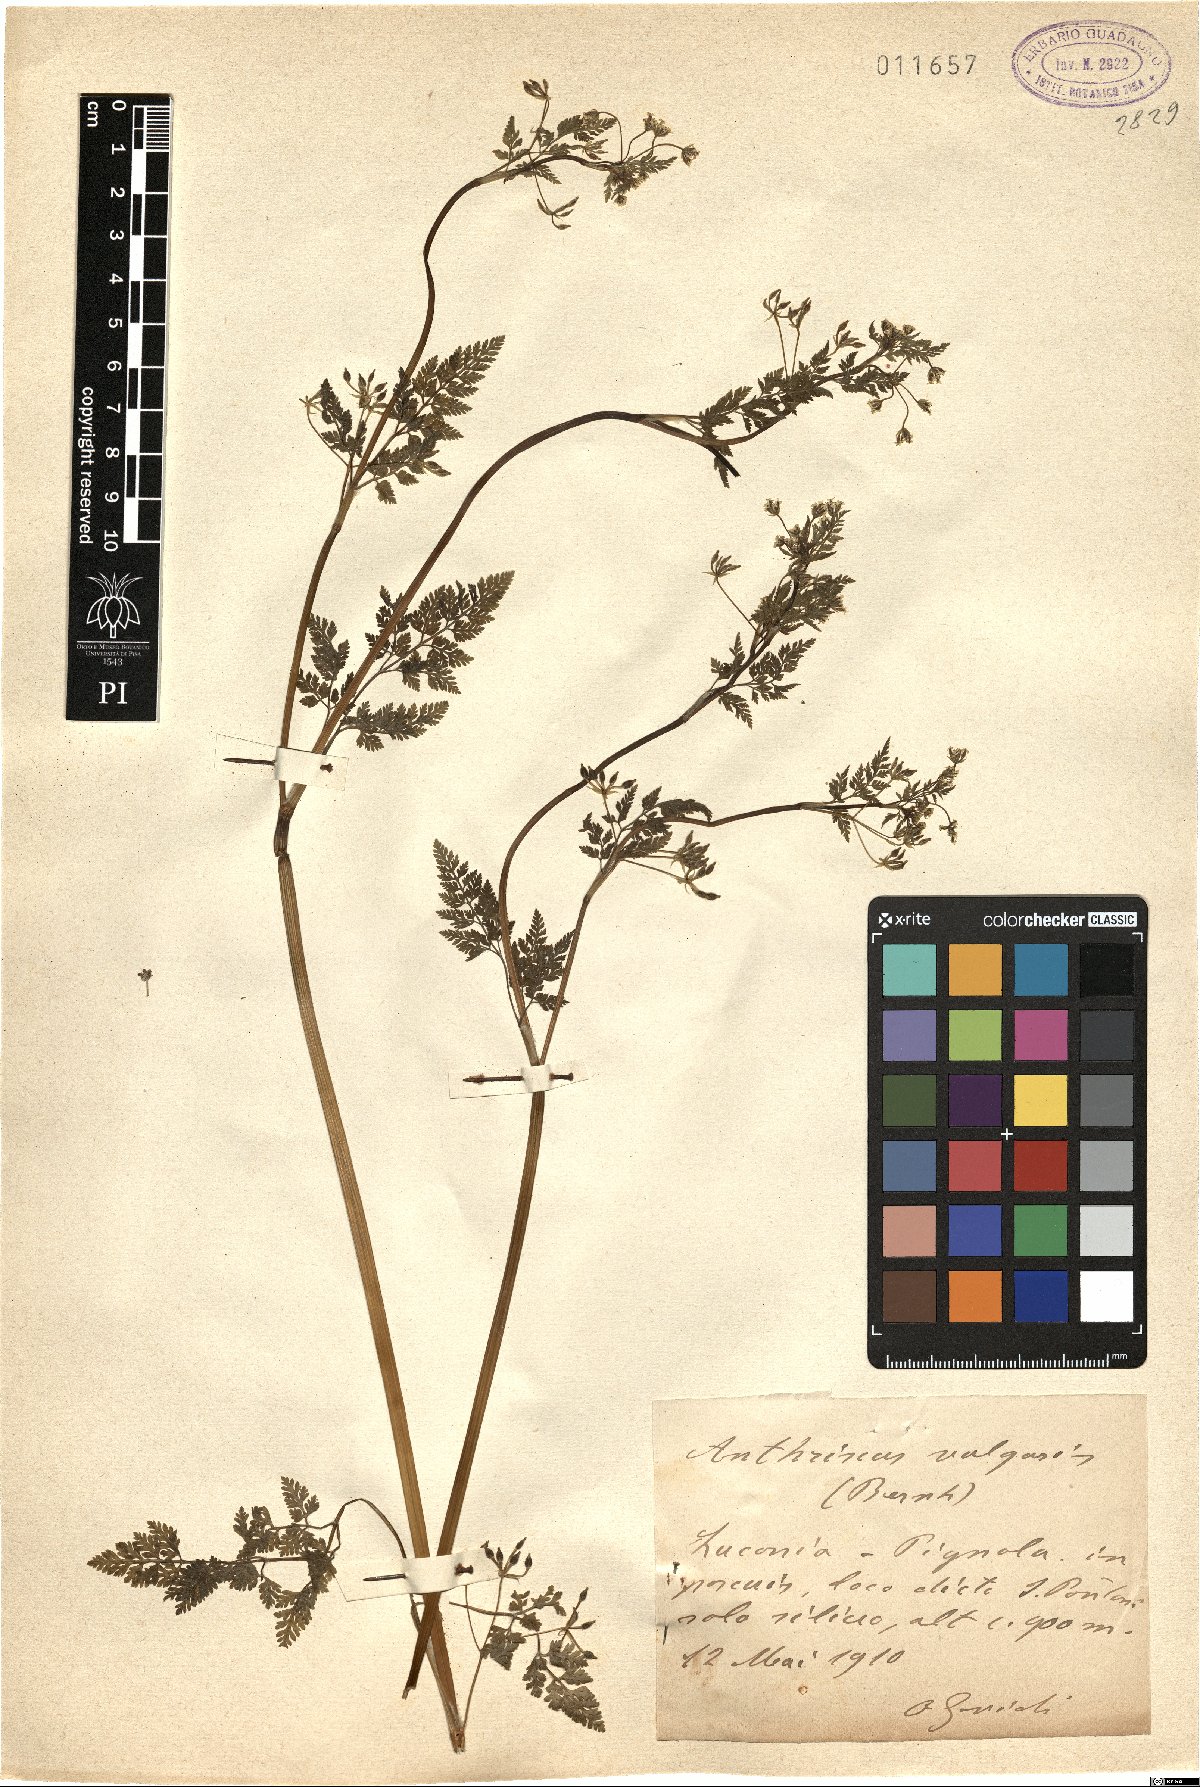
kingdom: Plantae
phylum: Tracheophyta
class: Magnoliopsida
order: Apiales
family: Apiaceae
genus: Torilis
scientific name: Torilis japonica
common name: Upright hedge-parsley
